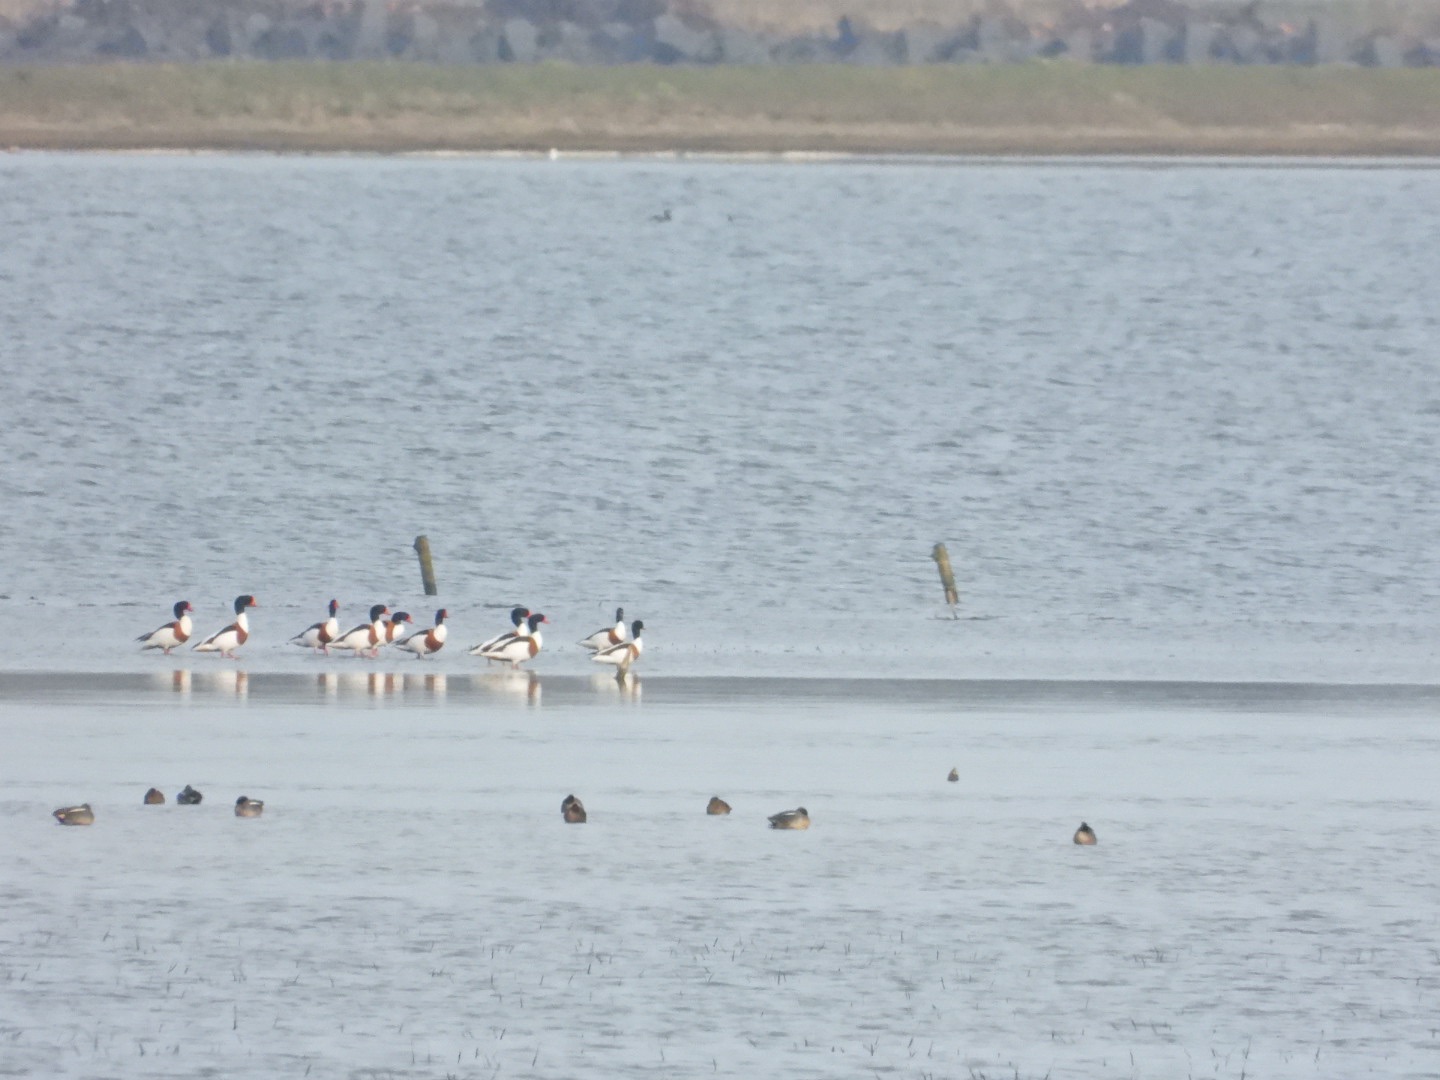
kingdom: Animalia
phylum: Chordata
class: Aves
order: Anseriformes
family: Anatidae
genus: Tadorna
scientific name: Tadorna tadorna
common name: Gravand
